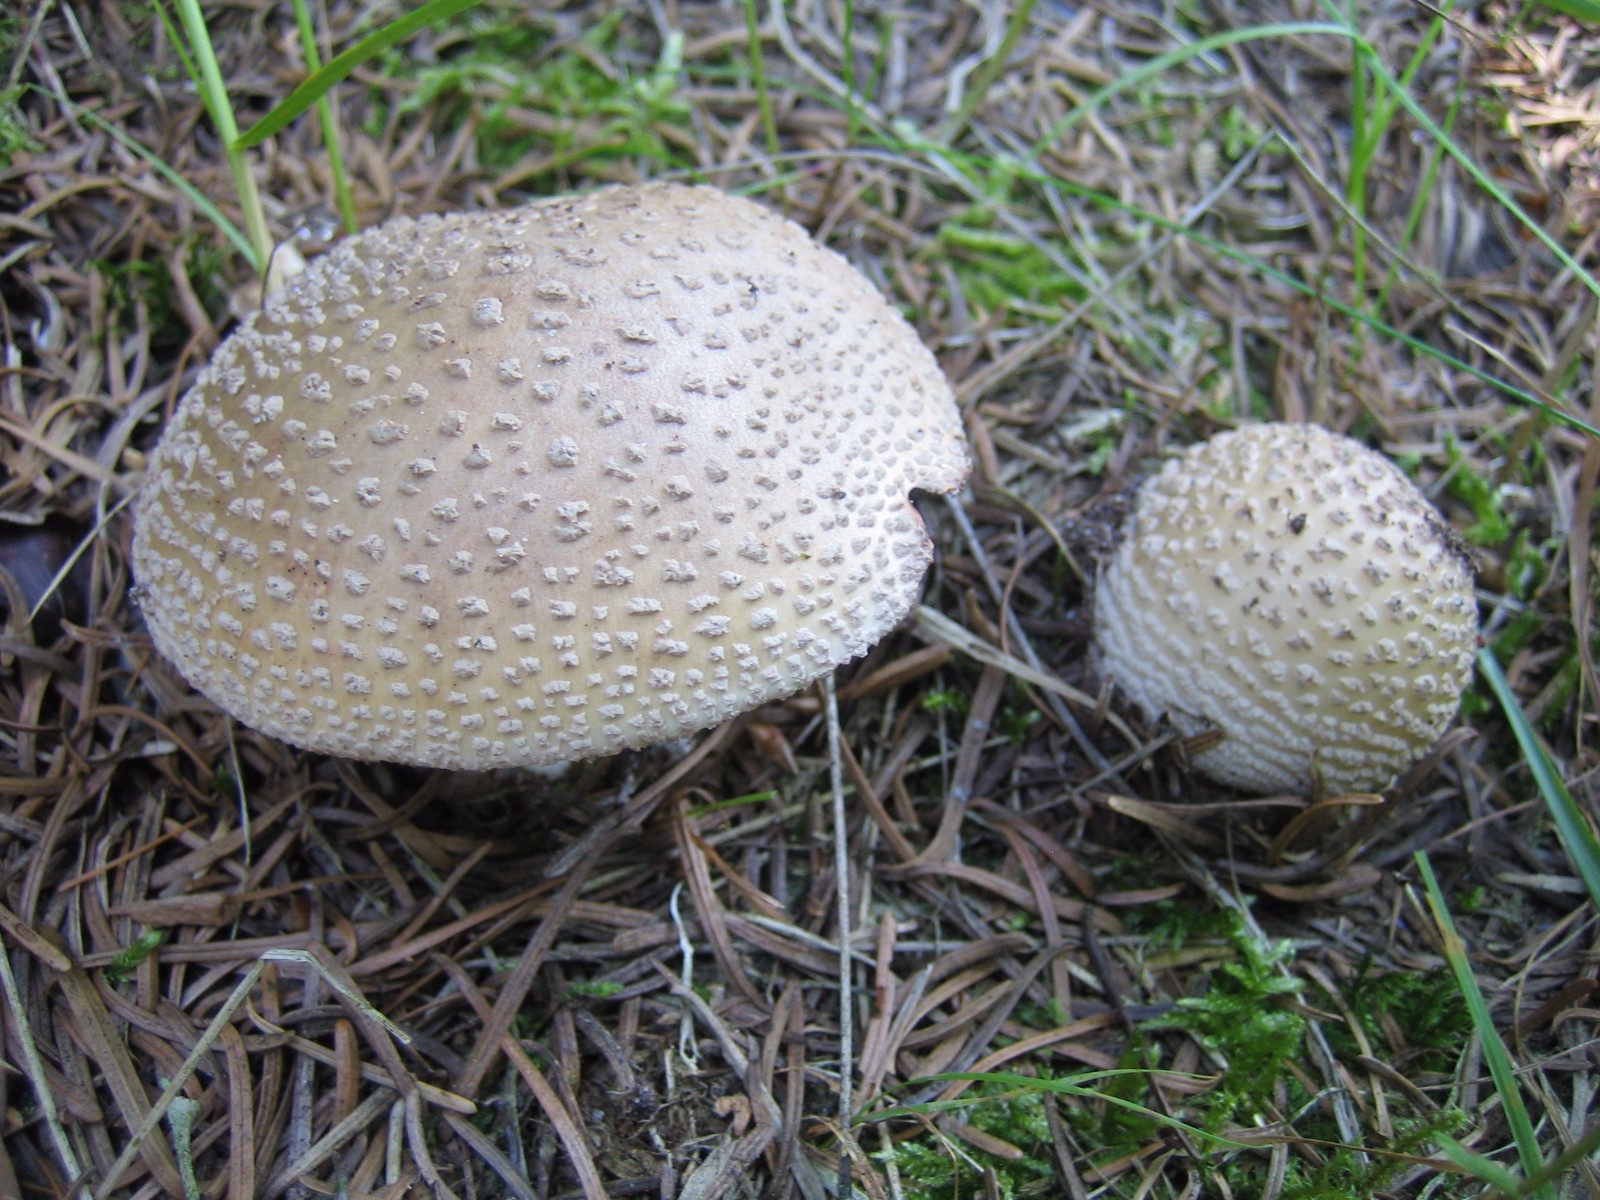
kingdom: Fungi
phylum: Basidiomycota
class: Agaricomycetes
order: Agaricales
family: Amanitaceae
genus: Amanita
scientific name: Amanita rubescens
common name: rødmende fluesvamp
